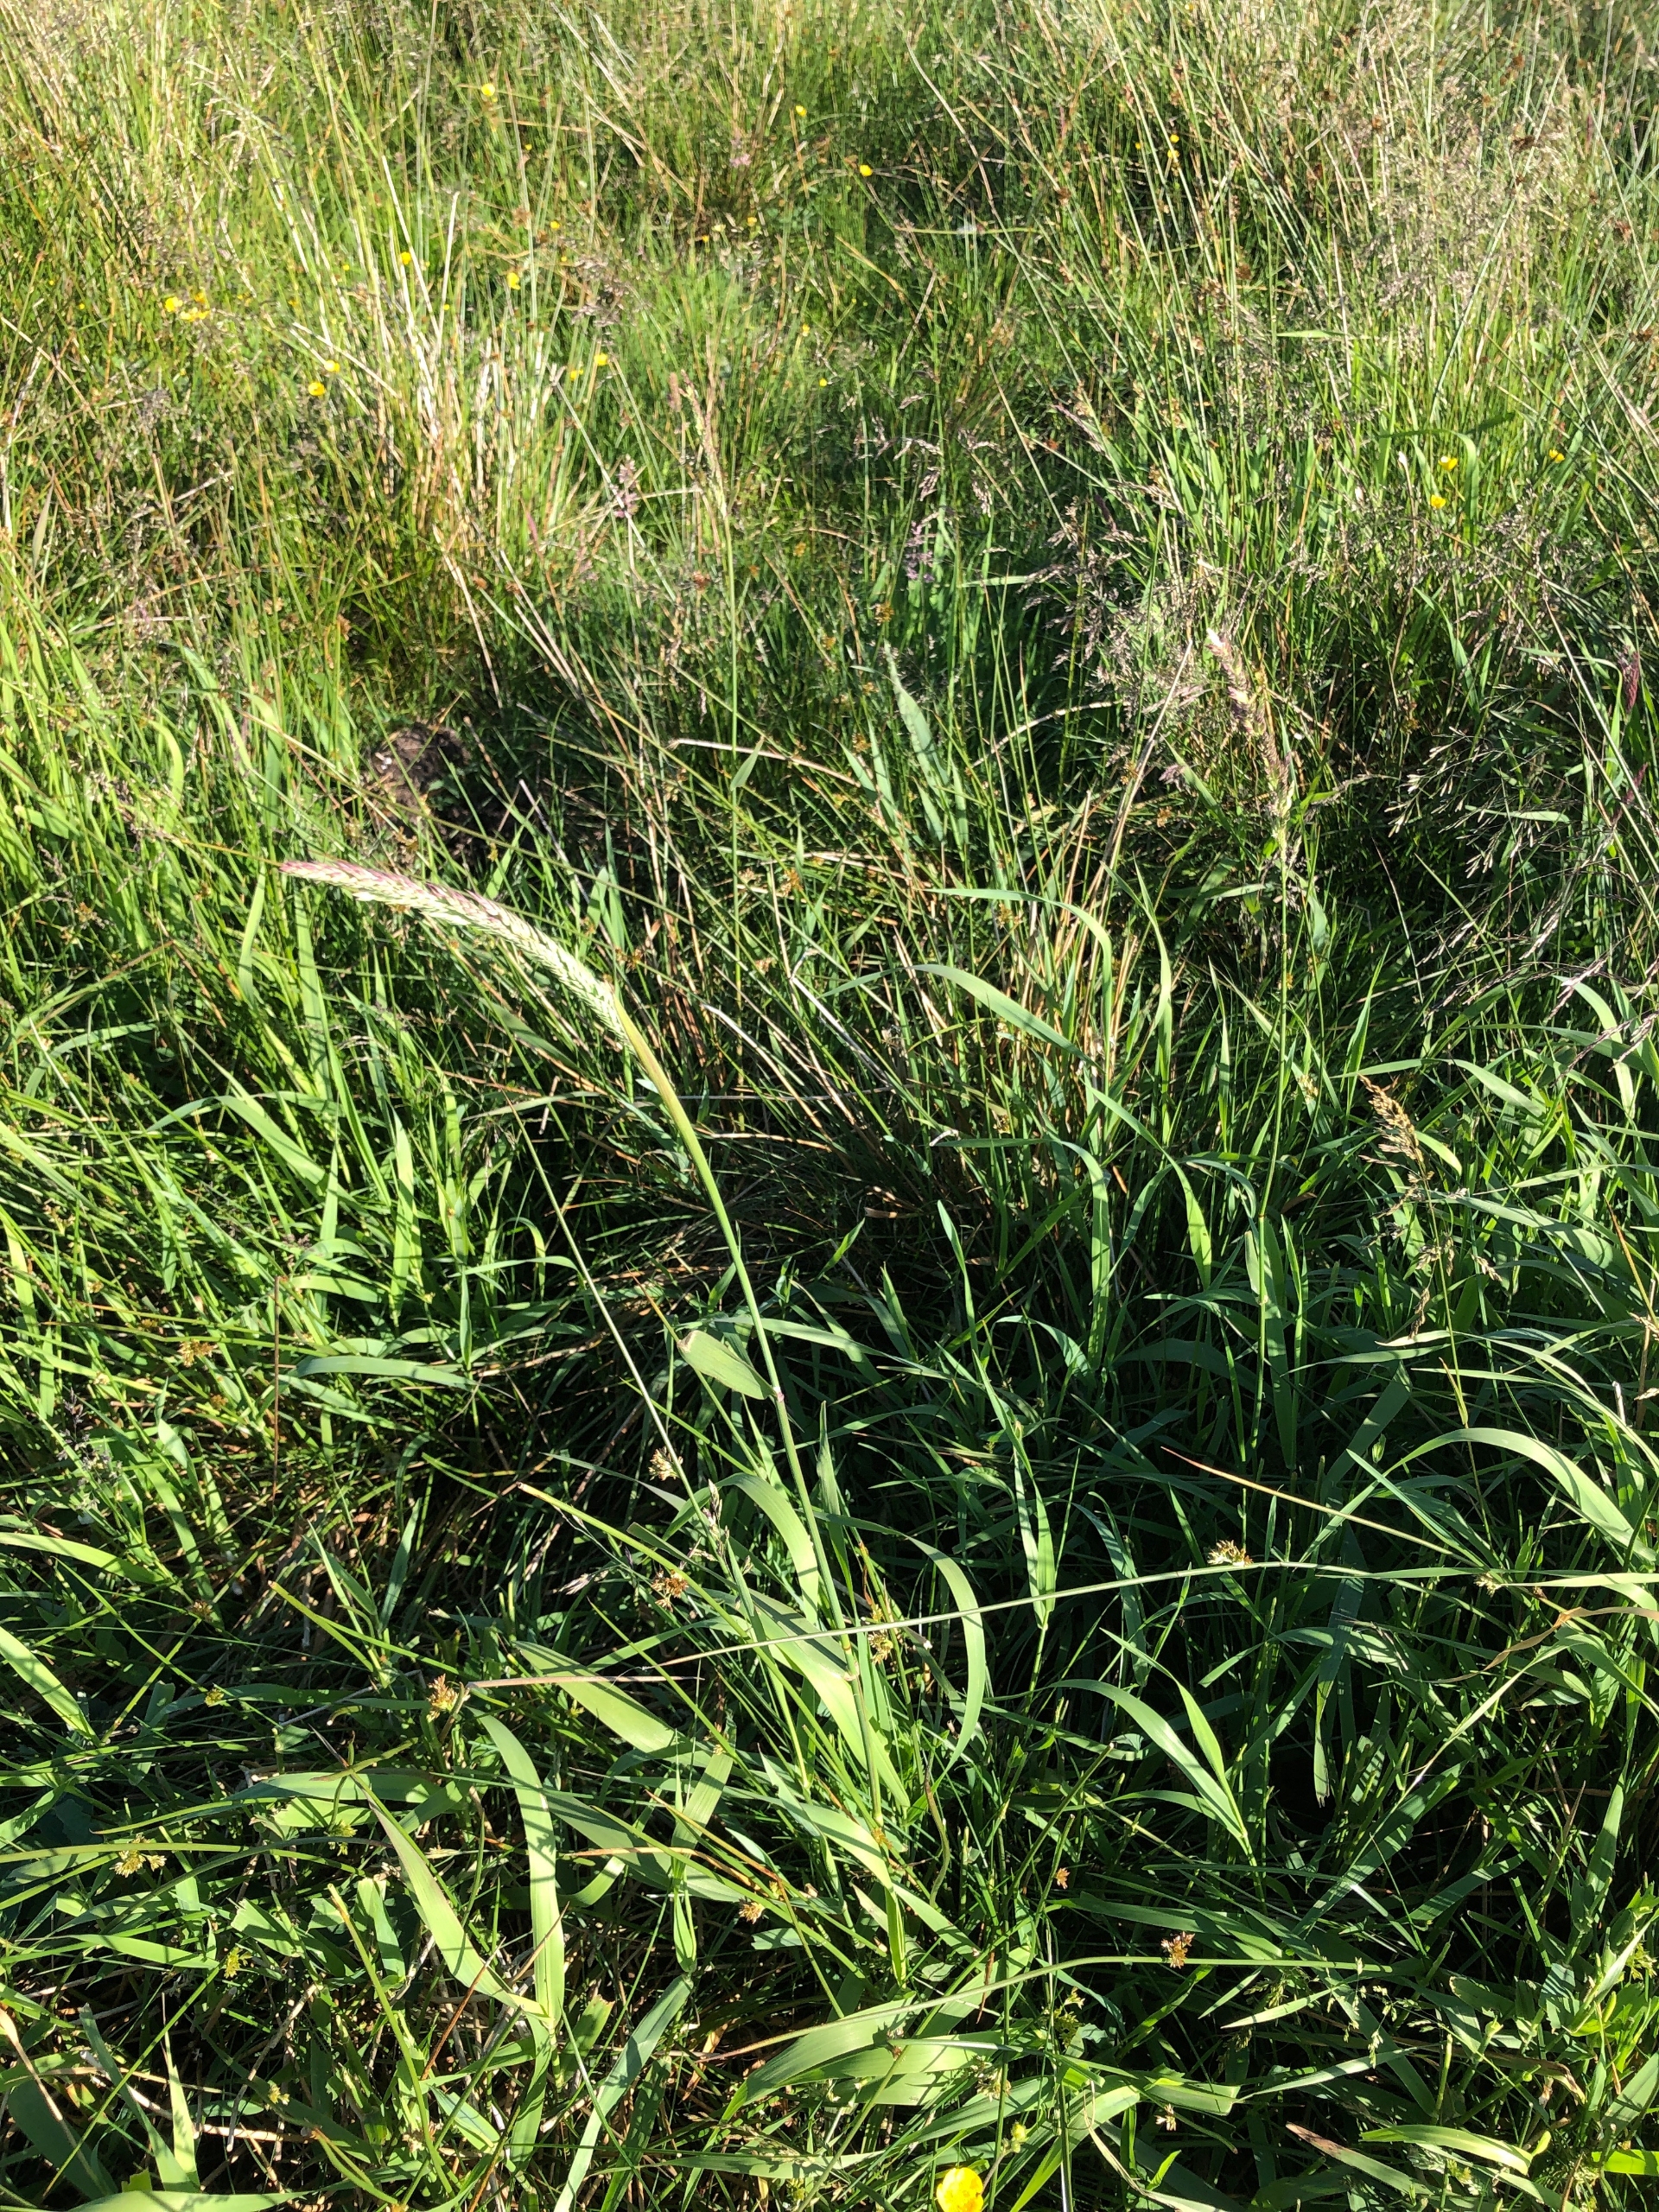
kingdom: Plantae
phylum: Tracheophyta
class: Liliopsida
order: Poales
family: Poaceae
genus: Phalaris
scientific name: Phalaris arundinacea
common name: Rørgræs
